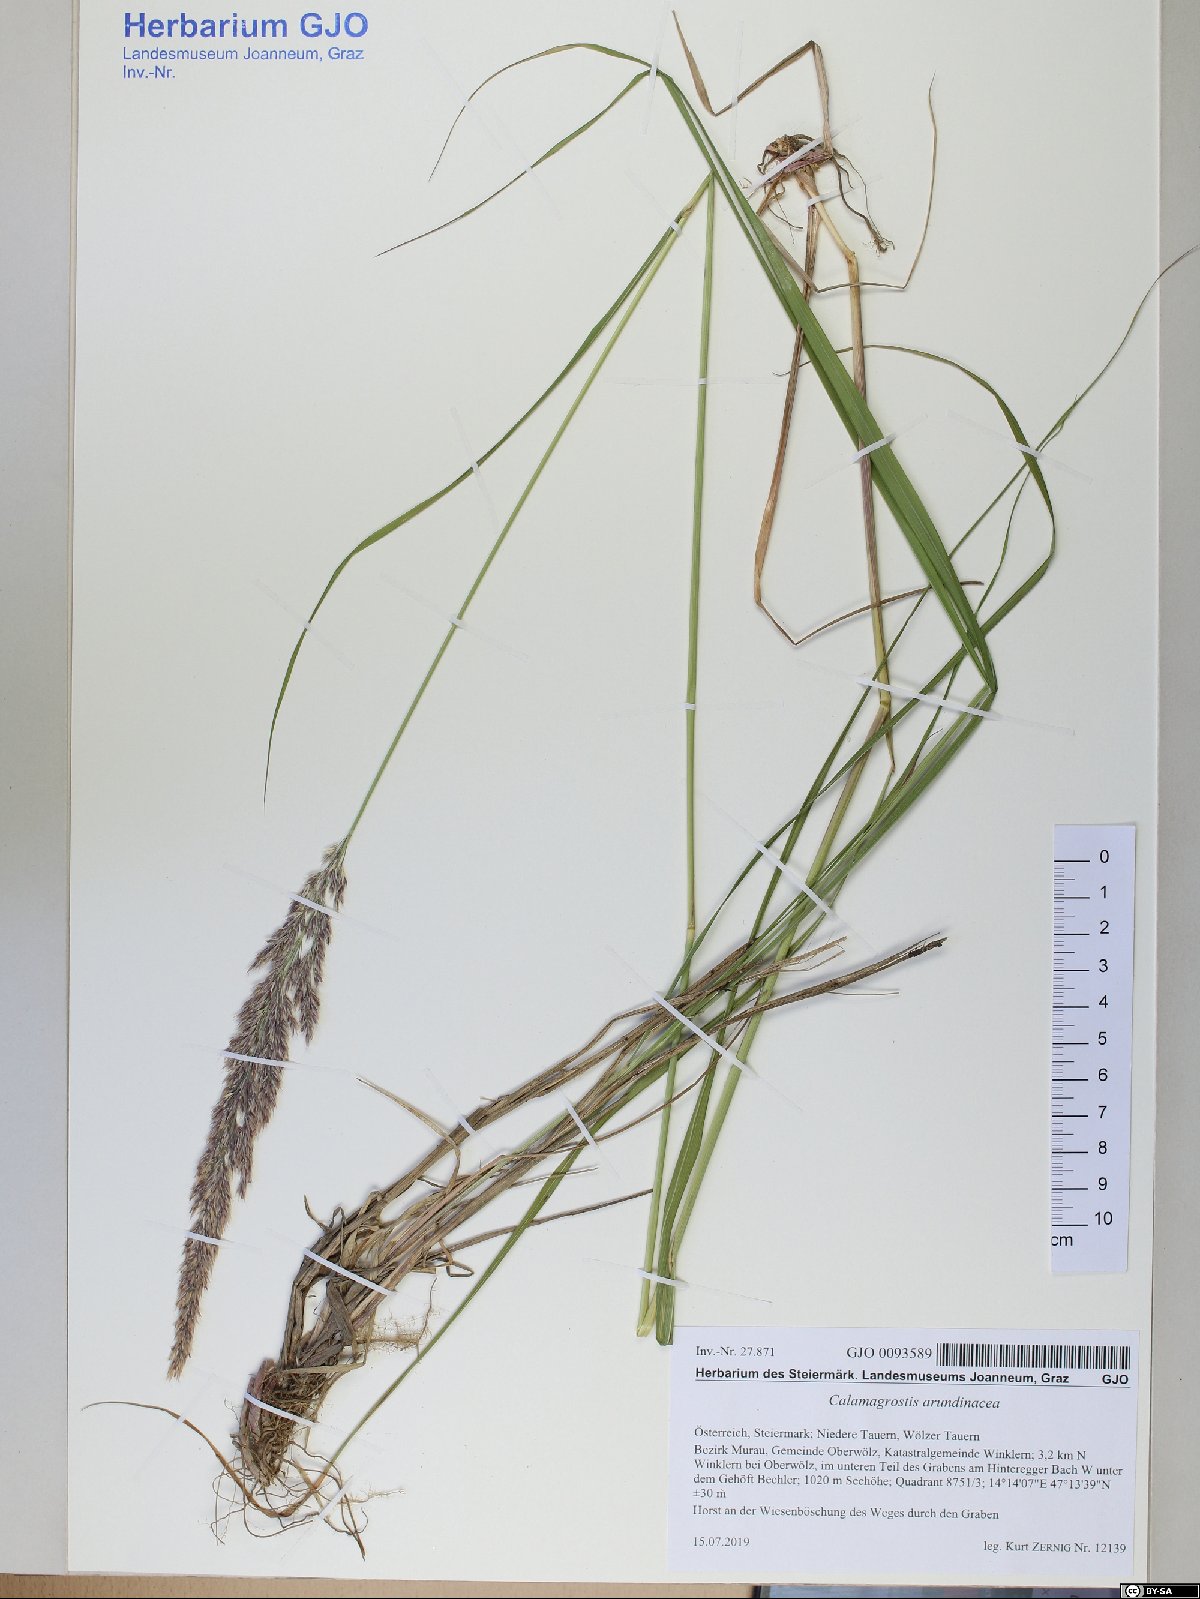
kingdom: Plantae
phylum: Tracheophyta
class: Liliopsida
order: Poales
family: Poaceae
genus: Calamagrostis
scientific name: Calamagrostis arundinacea
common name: Metskastik
